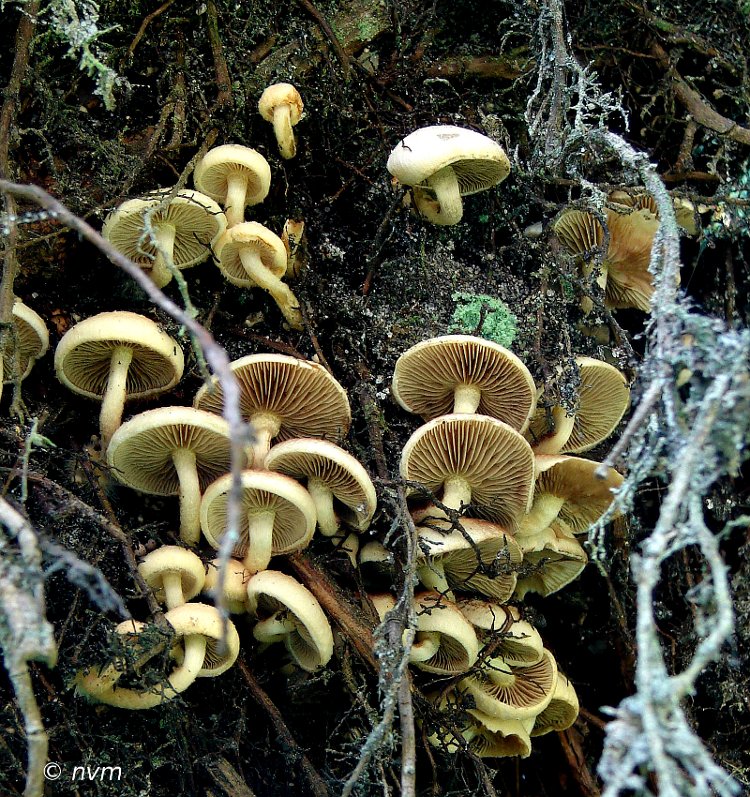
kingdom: Fungi
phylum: Basidiomycota
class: Agaricomycetes
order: Agaricales
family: Strophariaceae
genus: Pholiota
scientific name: Pholiota scamba
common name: dværg-skælhat
